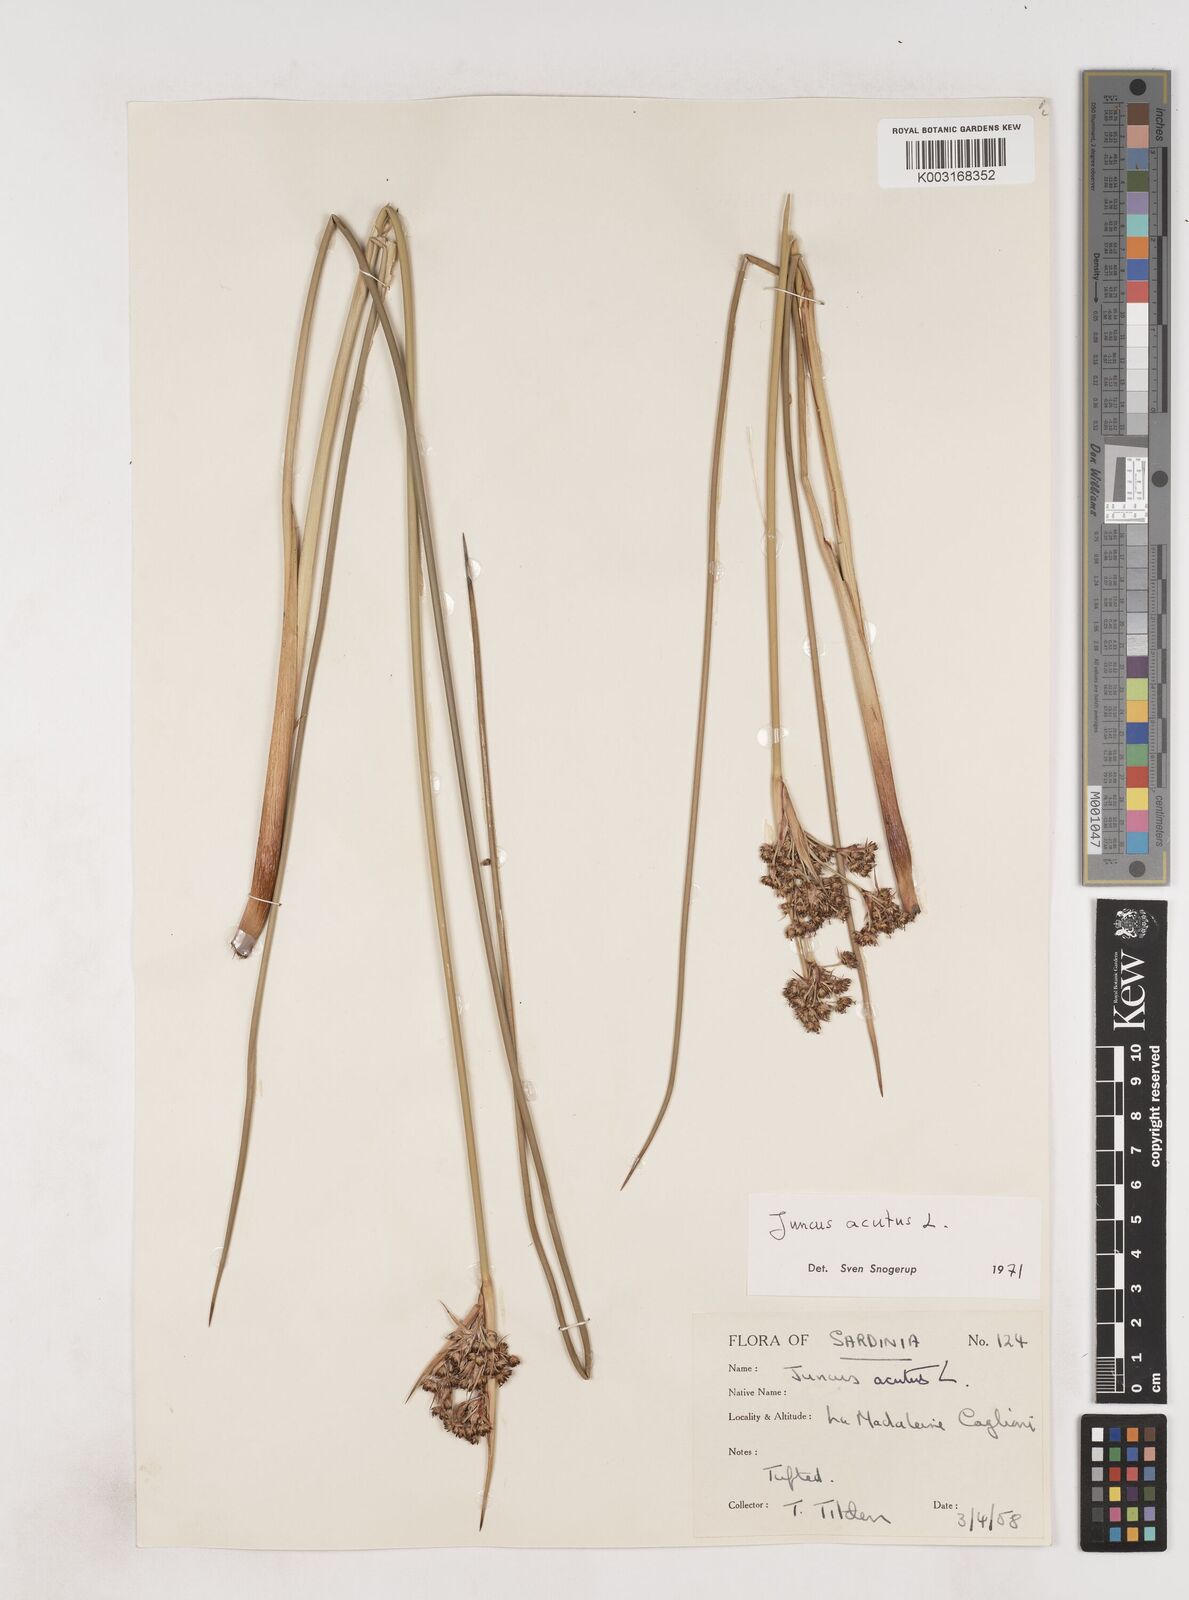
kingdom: Plantae
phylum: Tracheophyta
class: Liliopsida
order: Poales
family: Juncaceae
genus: Juncus
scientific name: Juncus acutus
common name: Sharp rush
